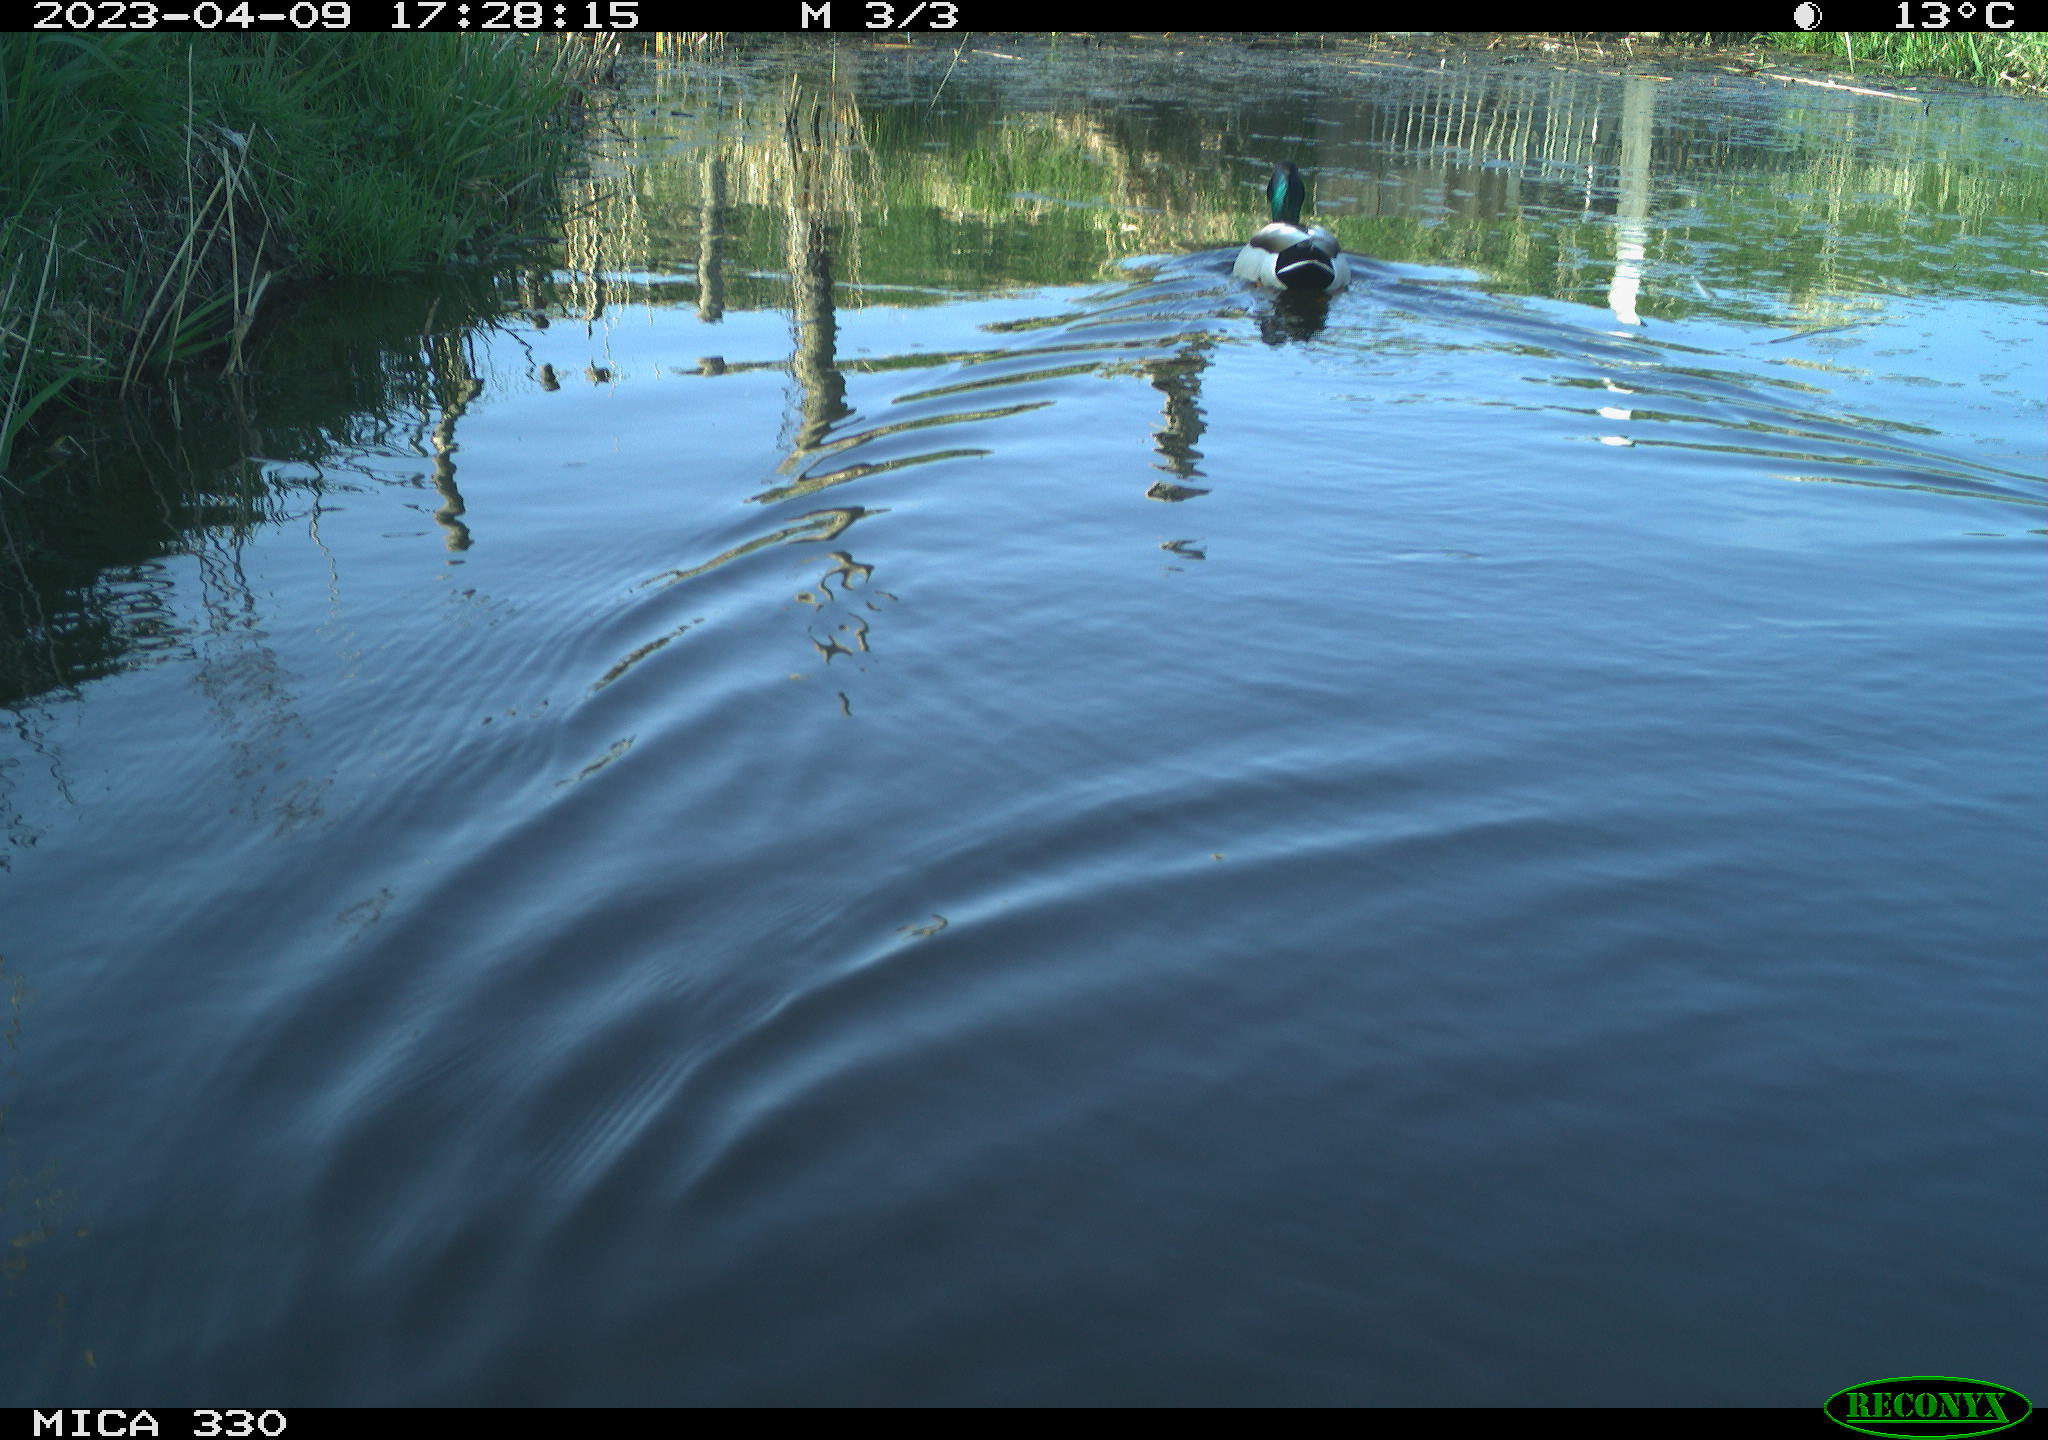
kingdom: Animalia
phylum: Chordata
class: Aves
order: Anseriformes
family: Anatidae
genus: Anas
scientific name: Anas
